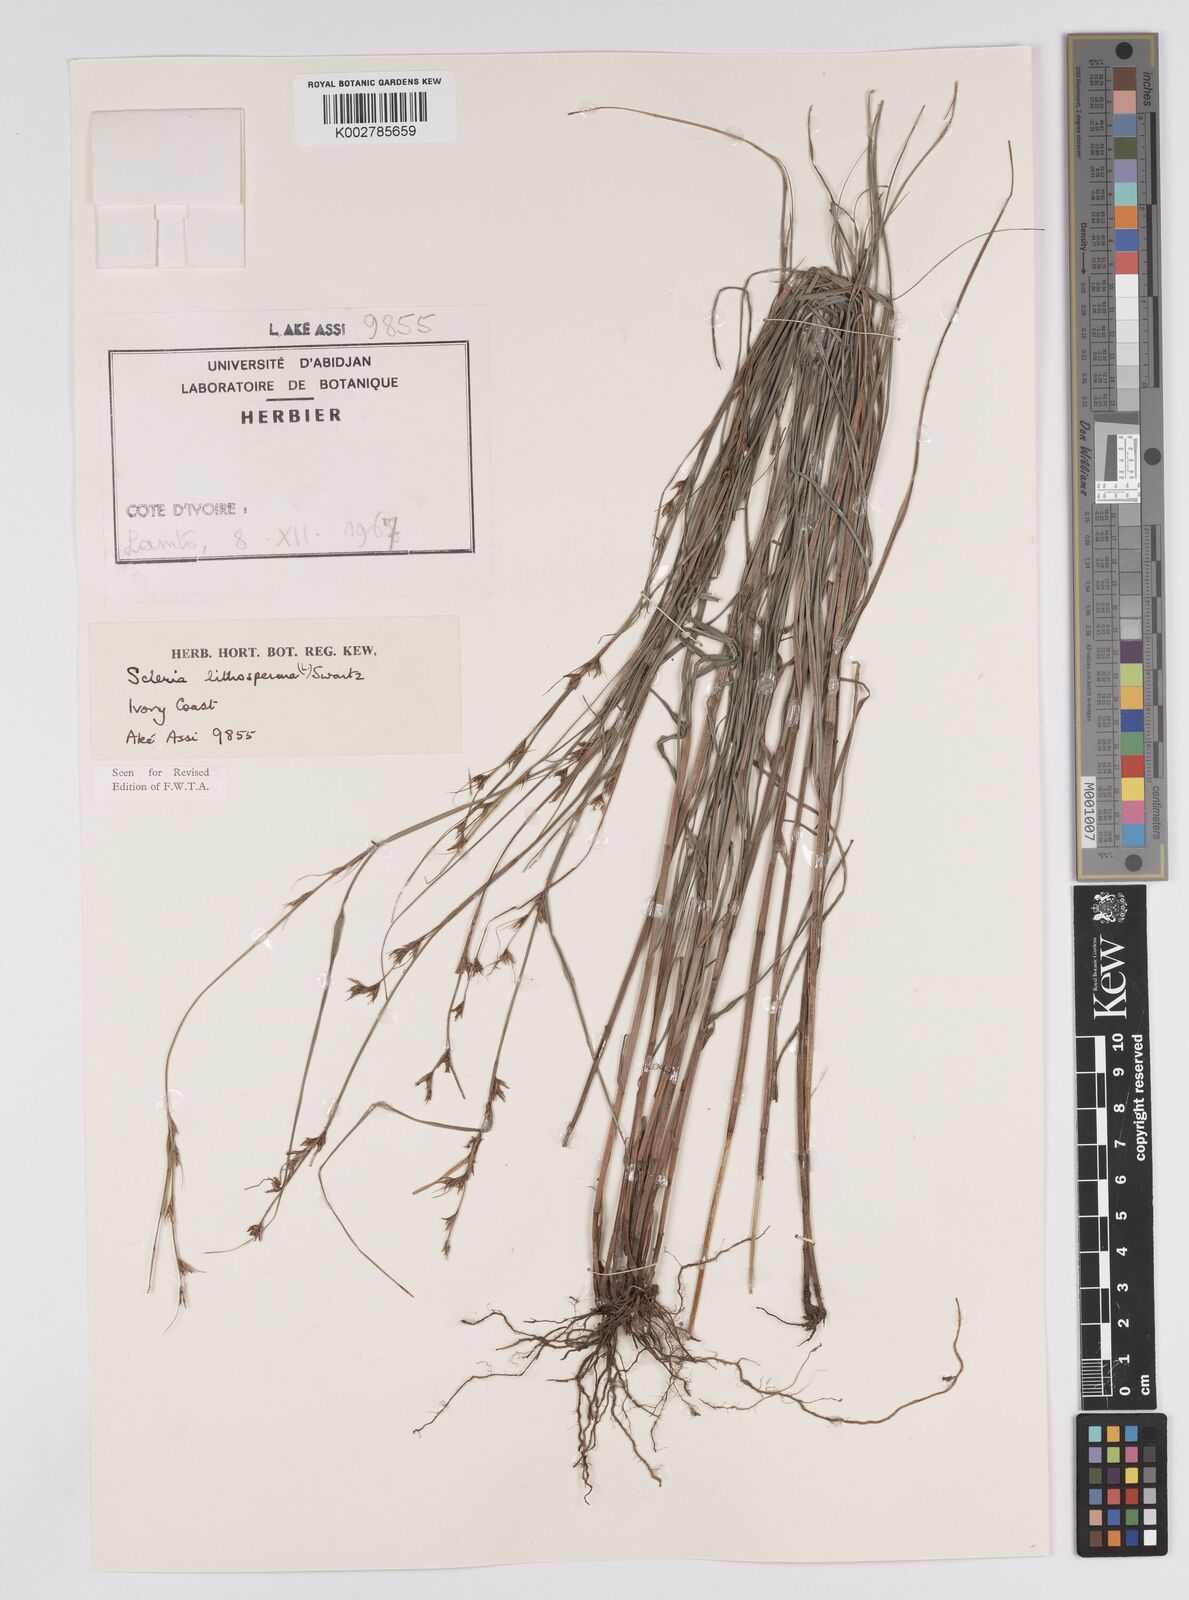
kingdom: Plantae
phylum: Tracheophyta
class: Liliopsida
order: Poales
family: Cyperaceae
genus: Scleria
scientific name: Scleria lithosperma
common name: Florida keys nut-rush
